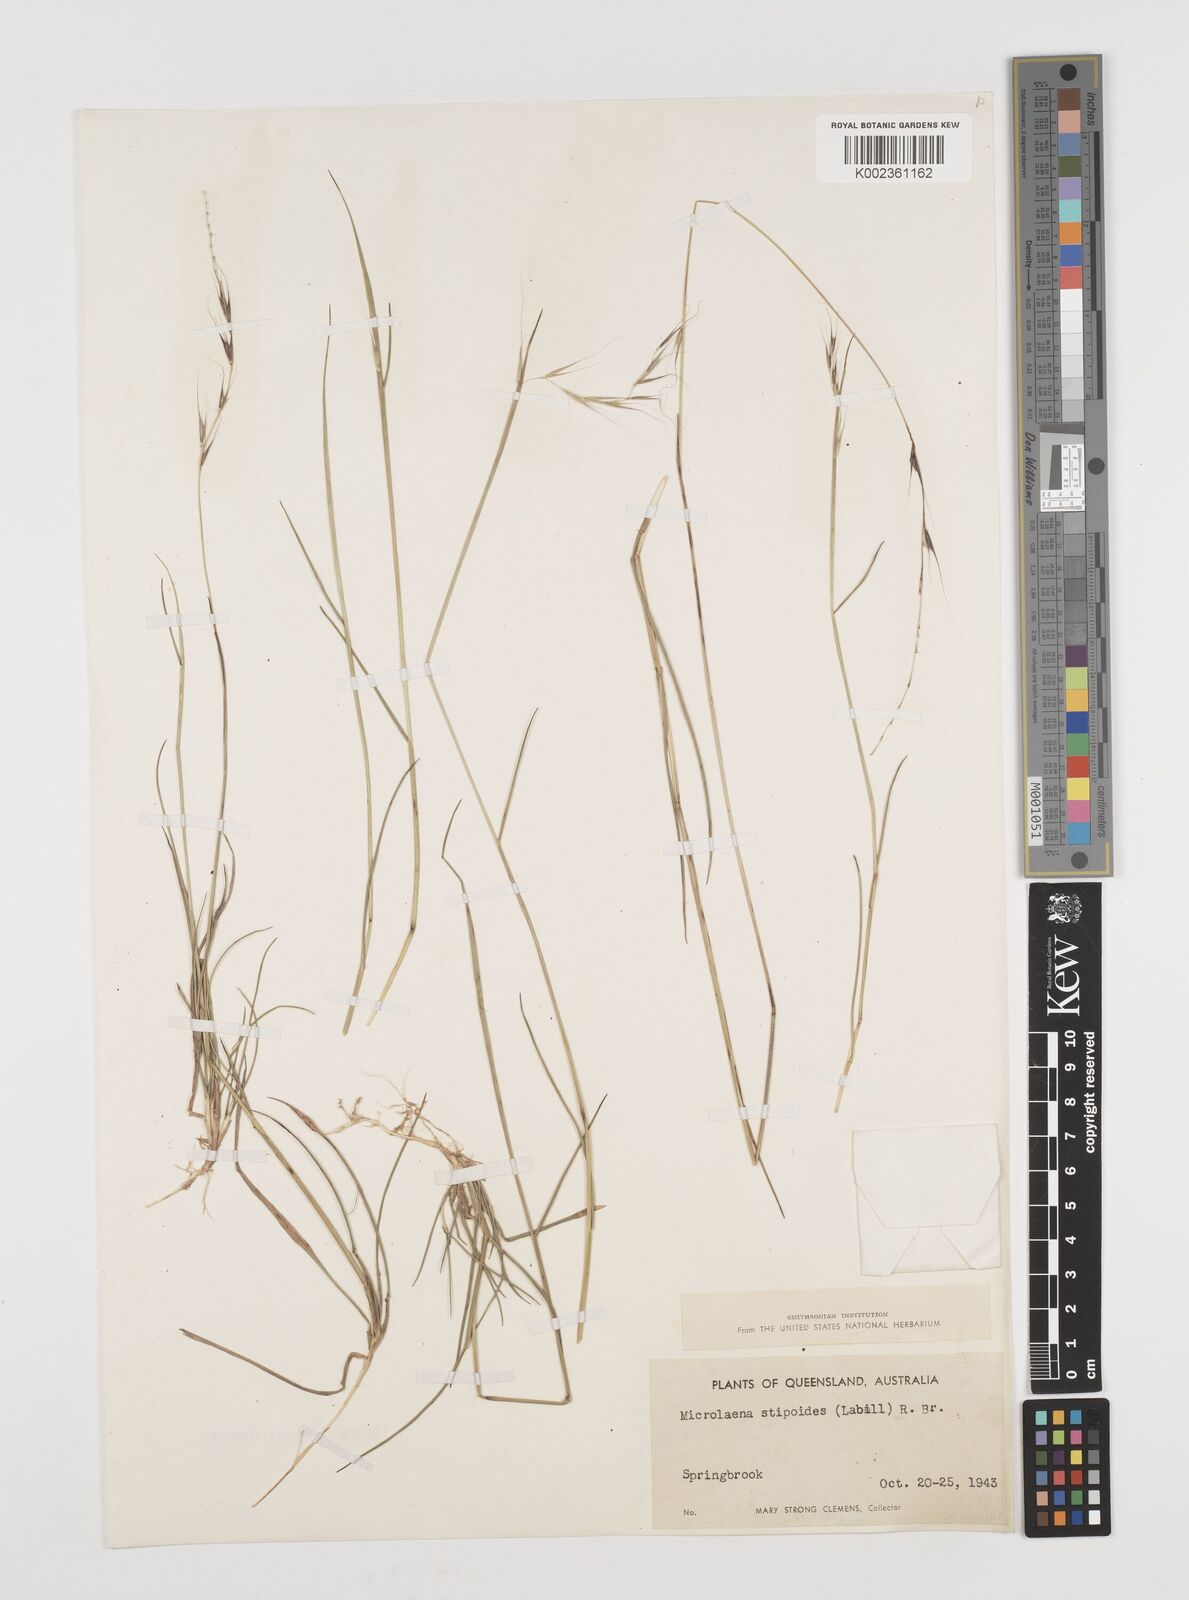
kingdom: Plantae
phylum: Tracheophyta
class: Liliopsida
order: Poales
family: Poaceae
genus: Microlaena
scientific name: Microlaena stipoides
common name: Meadow ricegrass
